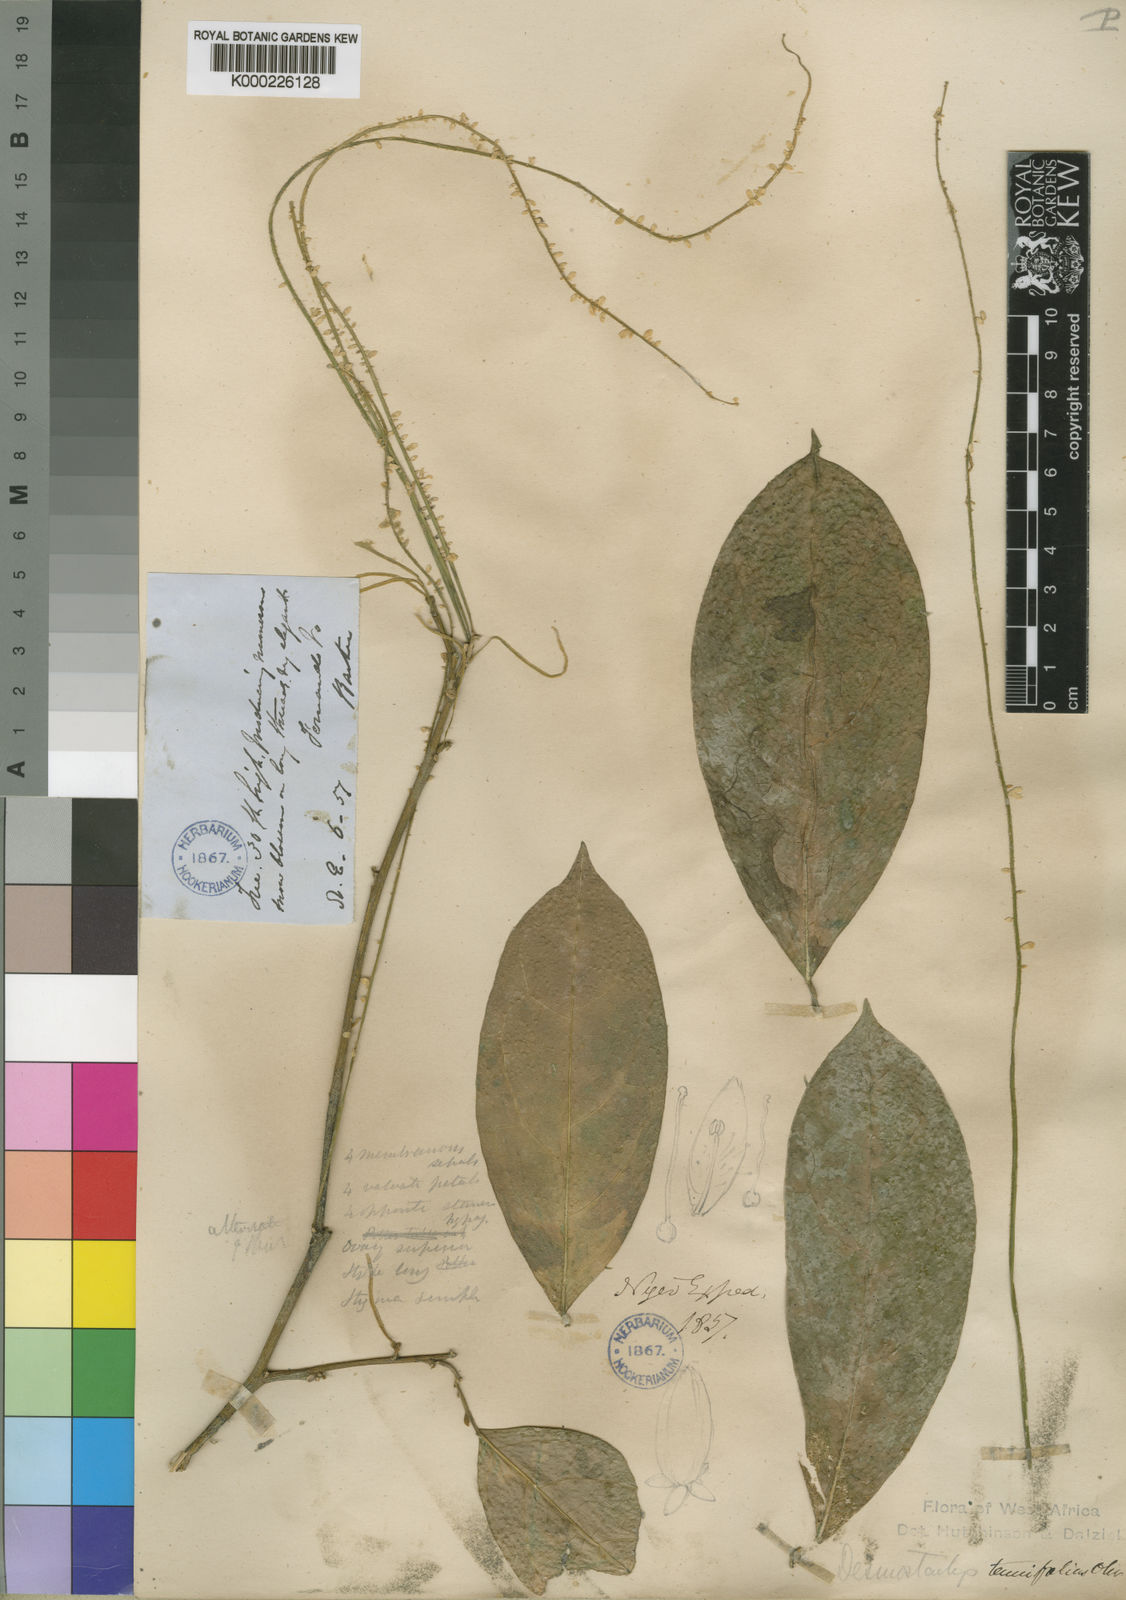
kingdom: Plantae
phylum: Tracheophyta
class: Magnoliopsida
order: Icacinales
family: Icacinaceae
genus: Vadensea
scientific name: Vadensea tenuifolia
